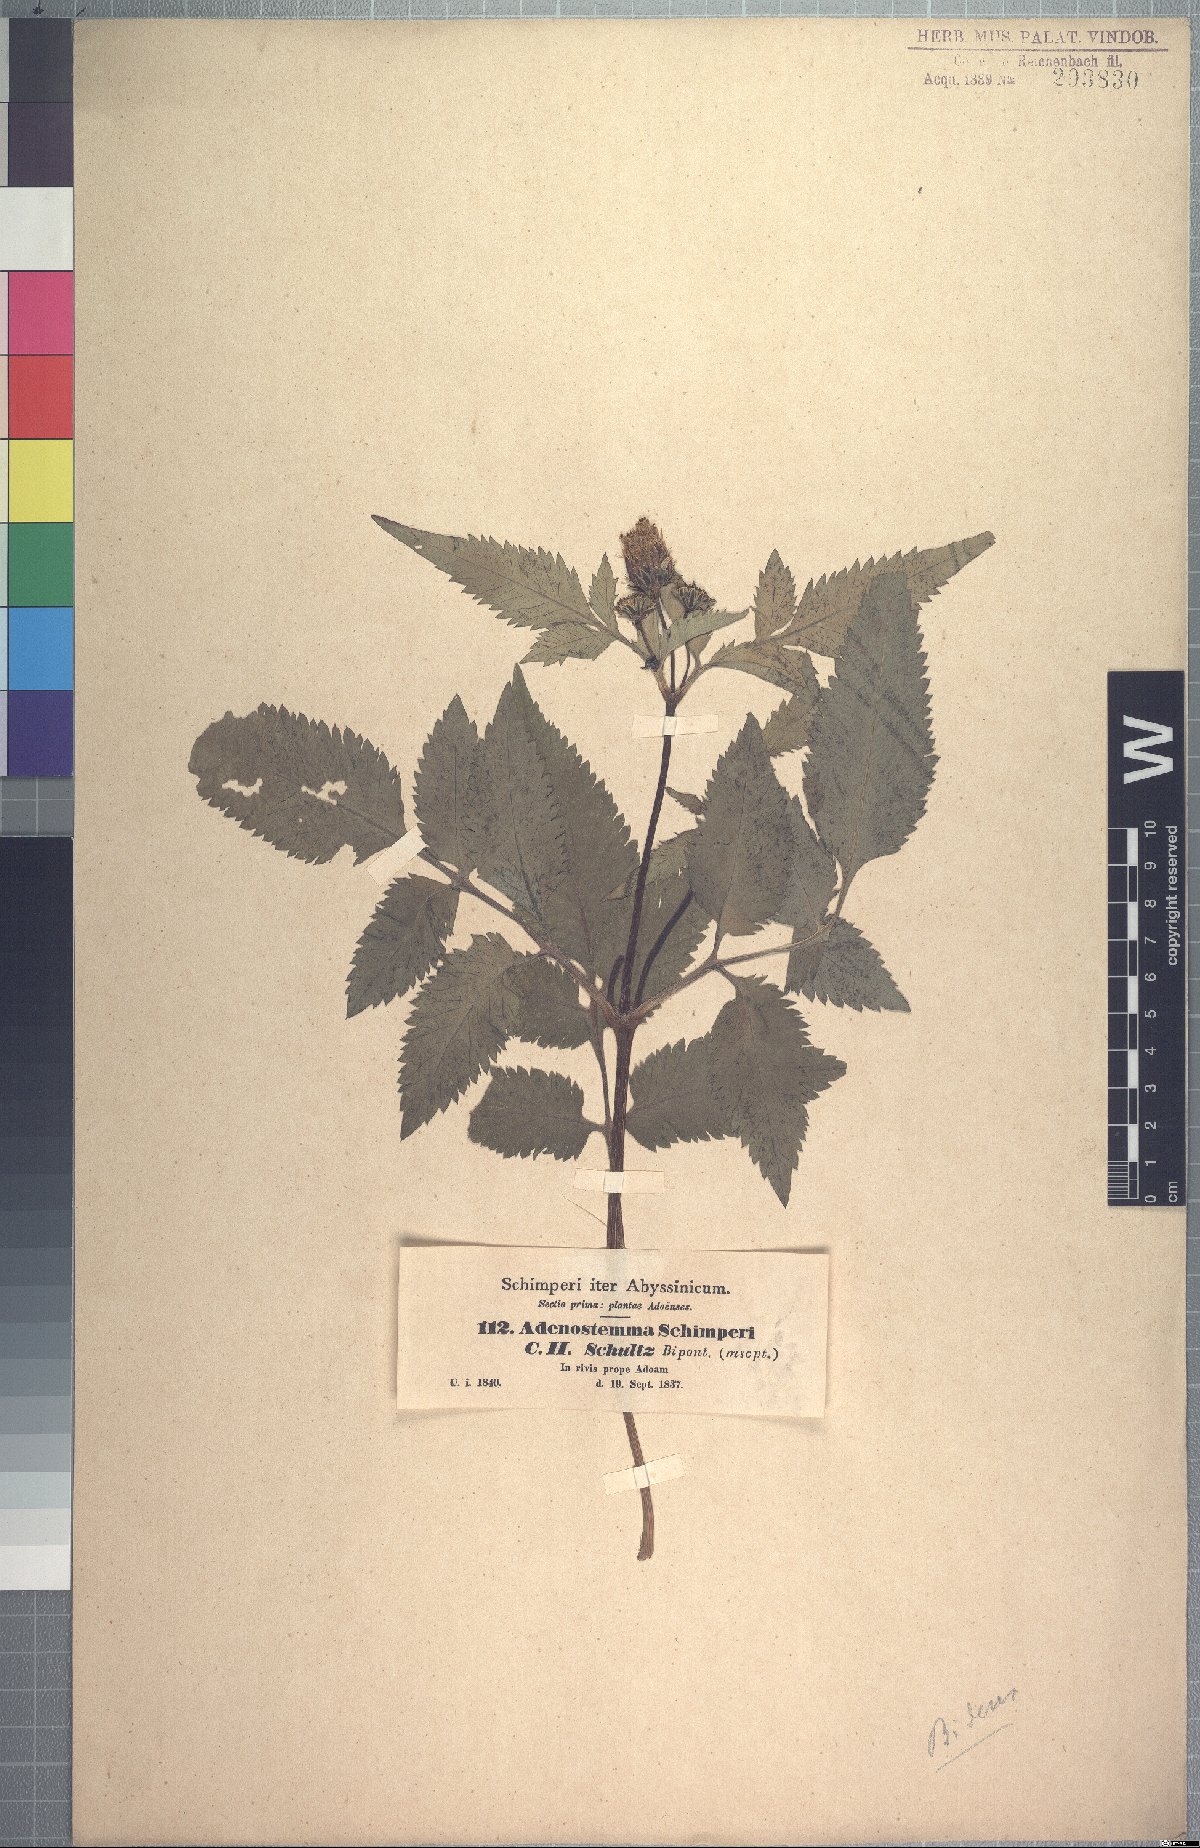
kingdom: Plantae
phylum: Tracheophyta
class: Magnoliopsida
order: Asterales
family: Asteraceae
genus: Adenostemma
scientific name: Adenostemma caffrum
